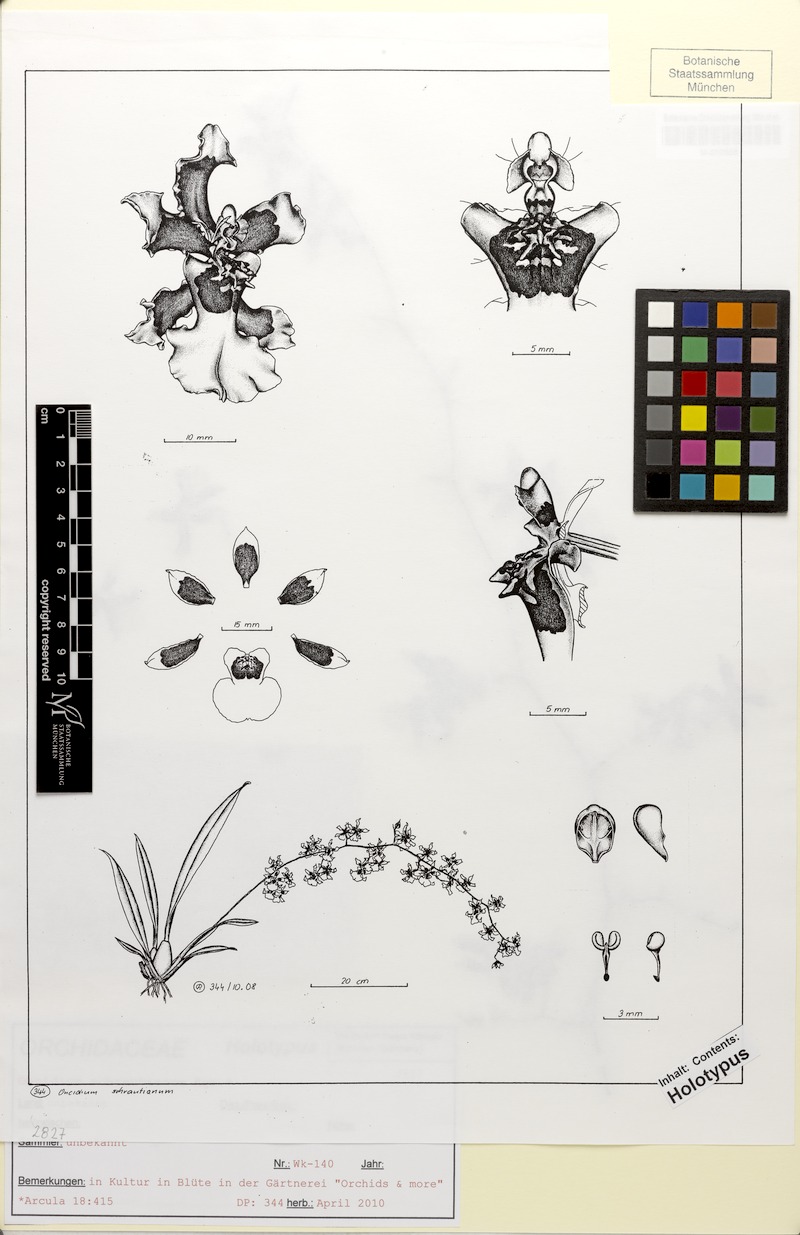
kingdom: Plantae
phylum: Tracheophyta
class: Liliopsida
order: Asparagales
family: Orchidaceae
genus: Oncidium
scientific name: Oncidium sphacelatum
